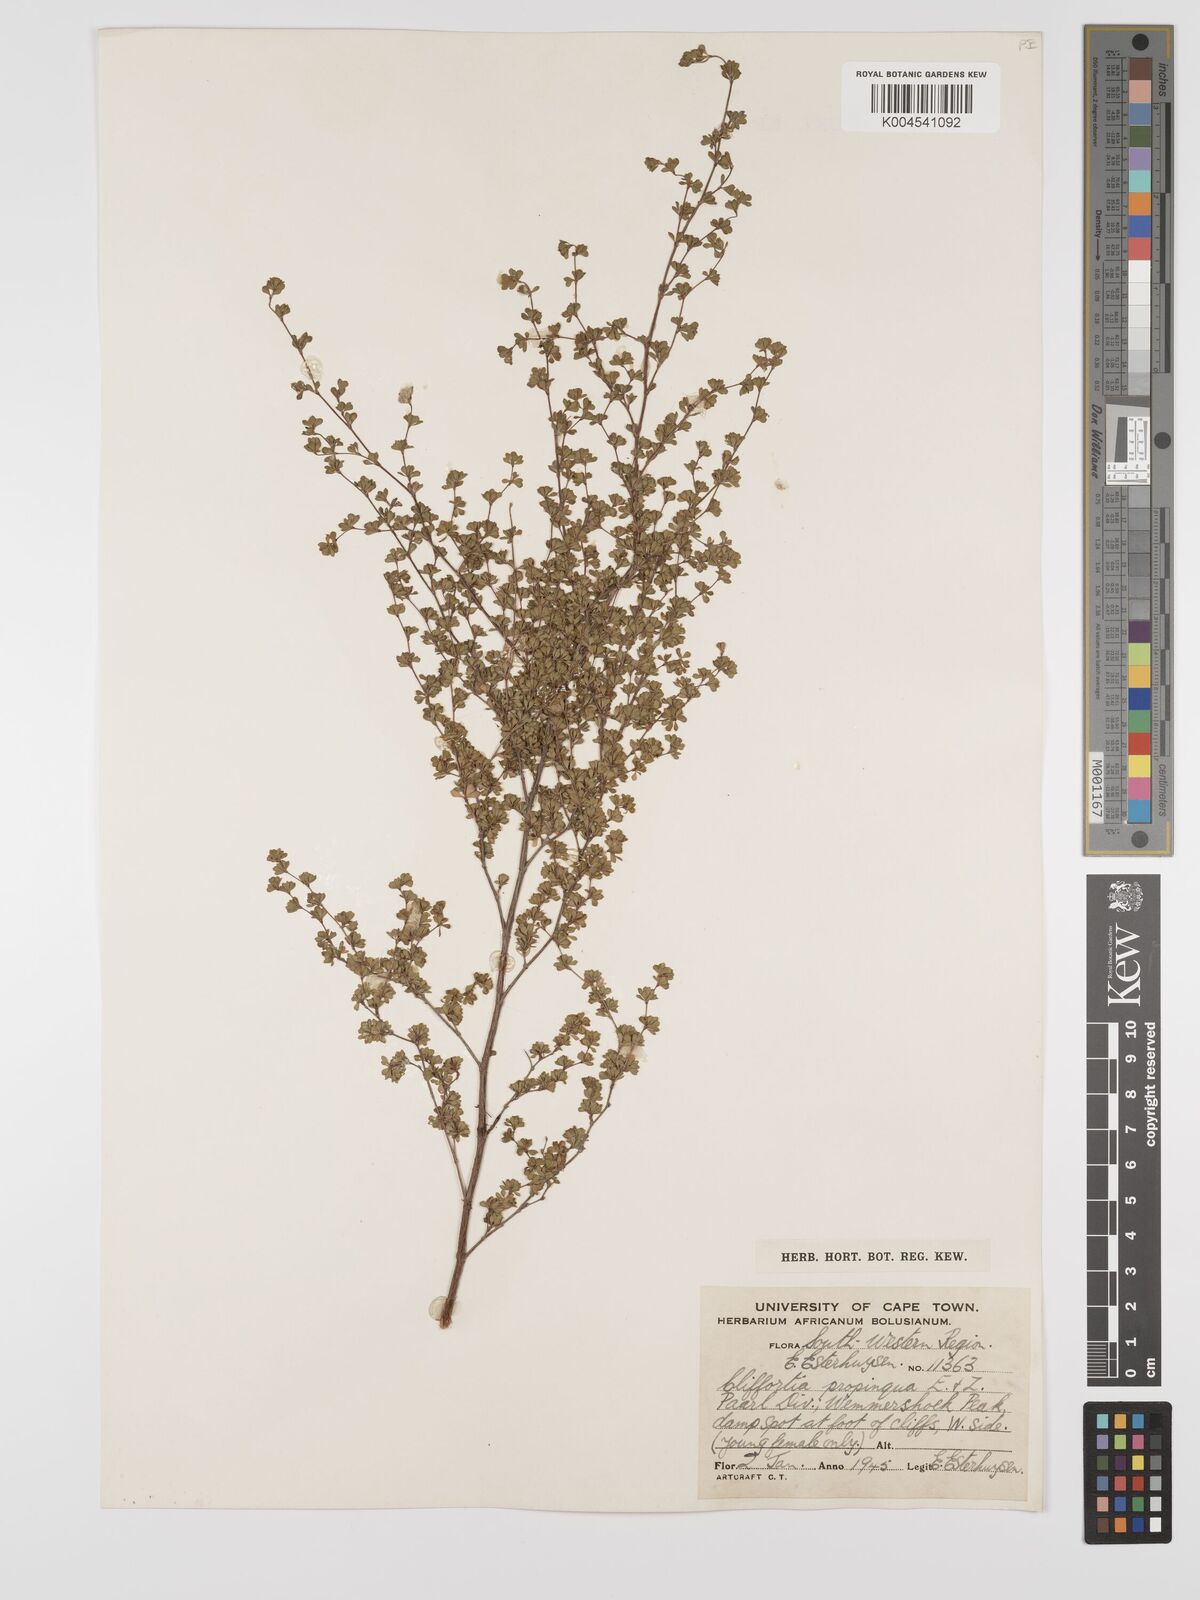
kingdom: Plantae
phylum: Tracheophyta
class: Magnoliopsida
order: Rosales
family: Rosaceae
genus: Cliffortia
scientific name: Cliffortia propinqua
